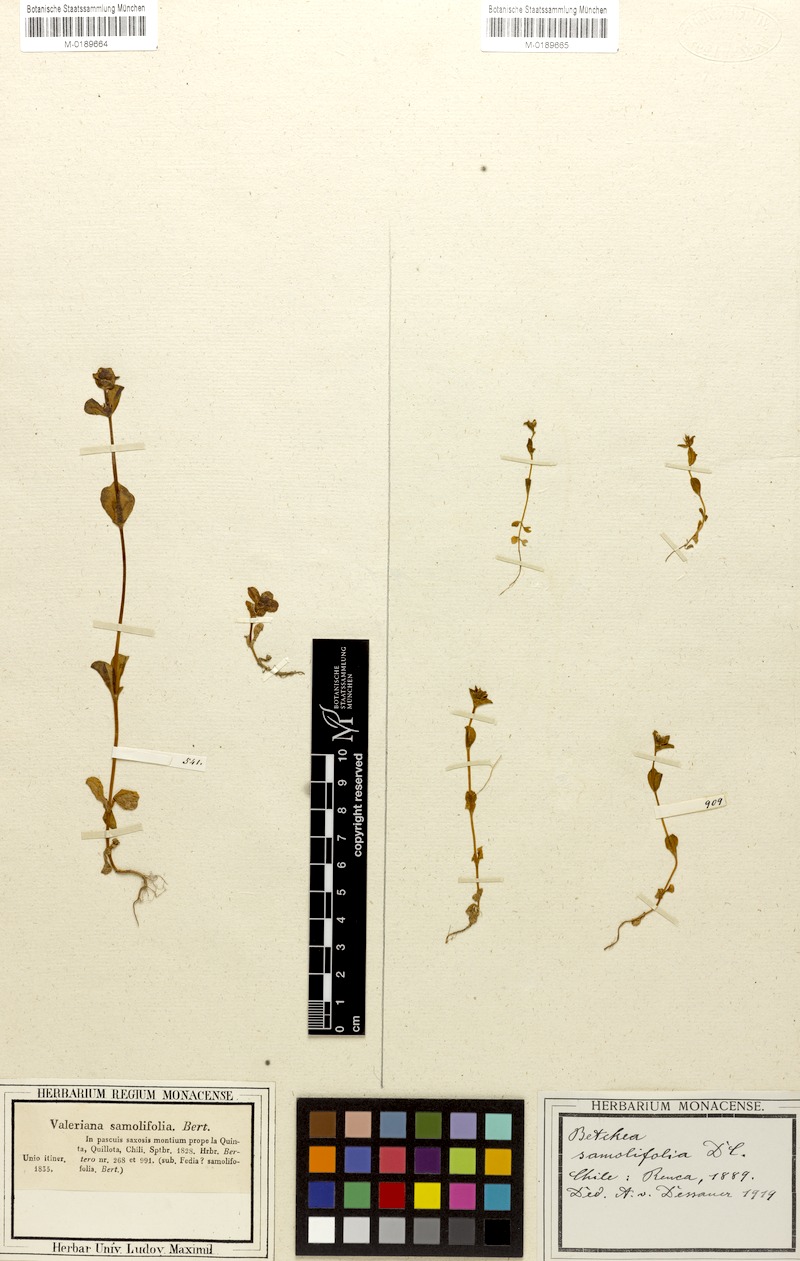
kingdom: Plantae
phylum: Tracheophyta
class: Magnoliopsida
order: Dipsacales
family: Caprifoliaceae
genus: Valeriana
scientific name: Valeriana samolifolia
